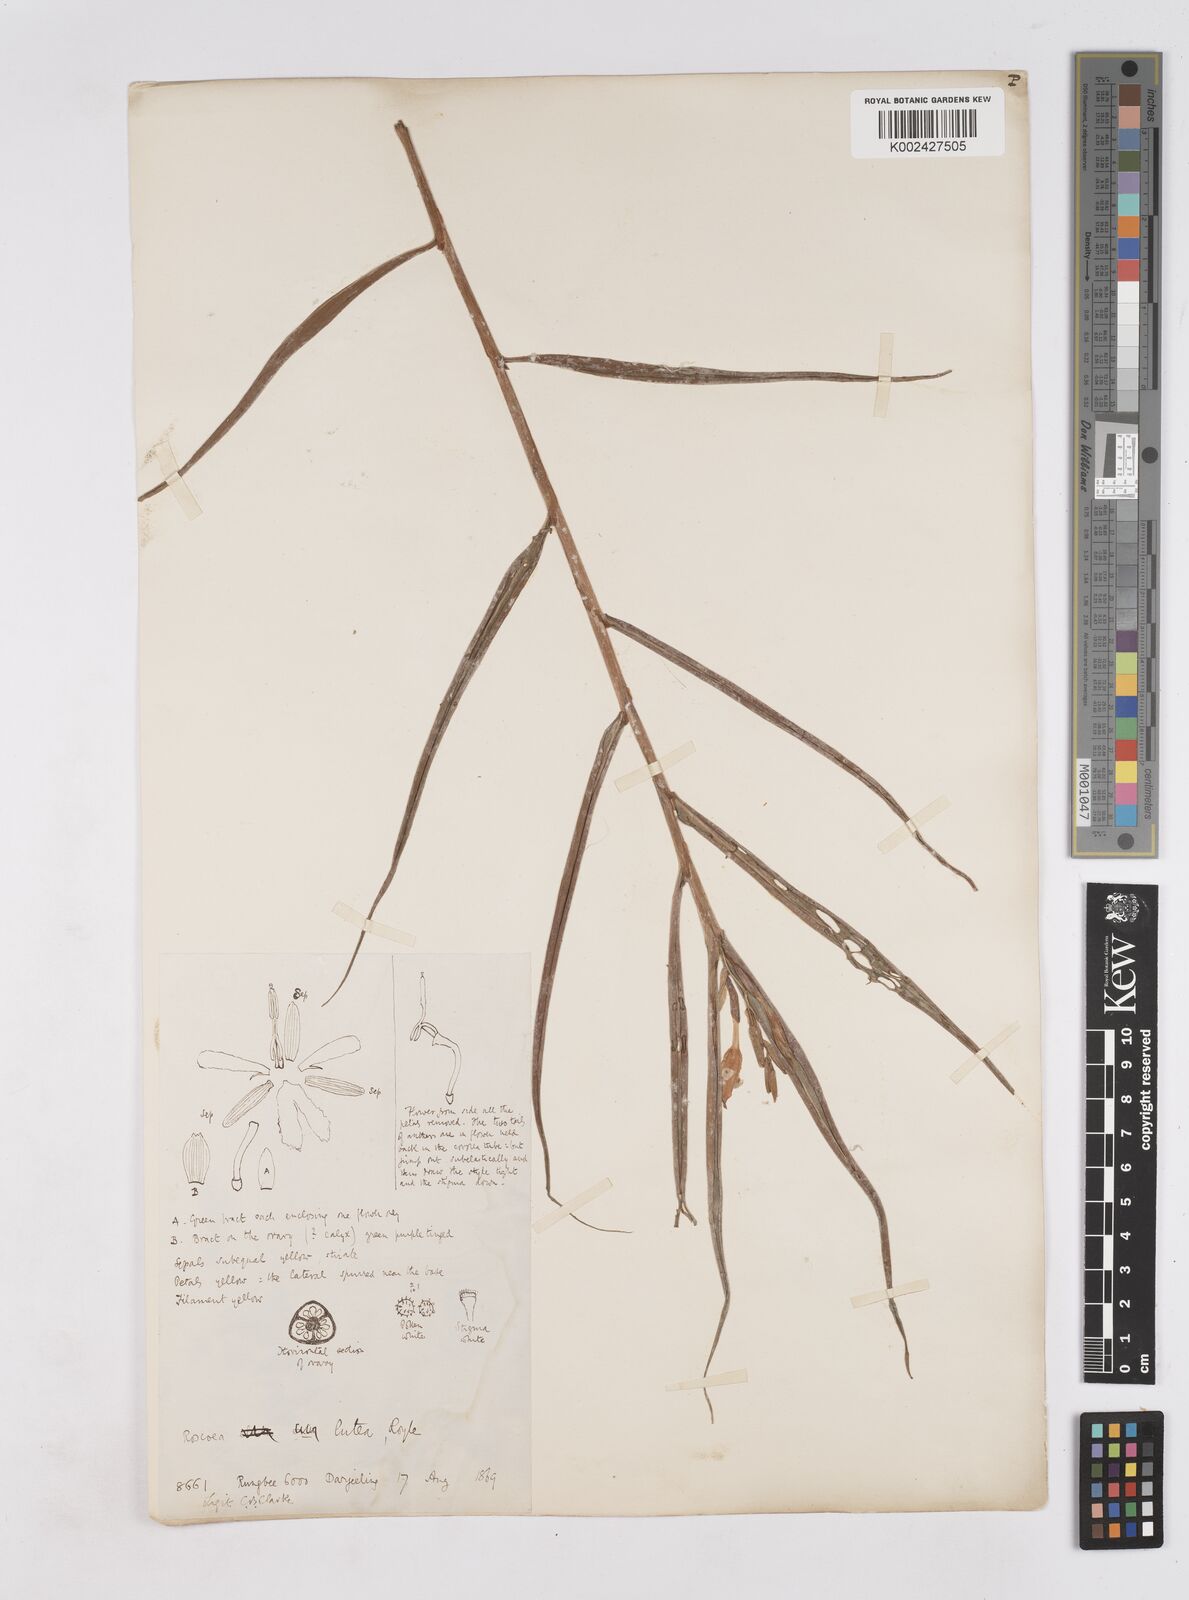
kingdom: Plantae
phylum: Tracheophyta
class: Liliopsida
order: Zingiberales
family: Zingiberaceae
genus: Cautleya
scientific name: Cautleya gracilis
